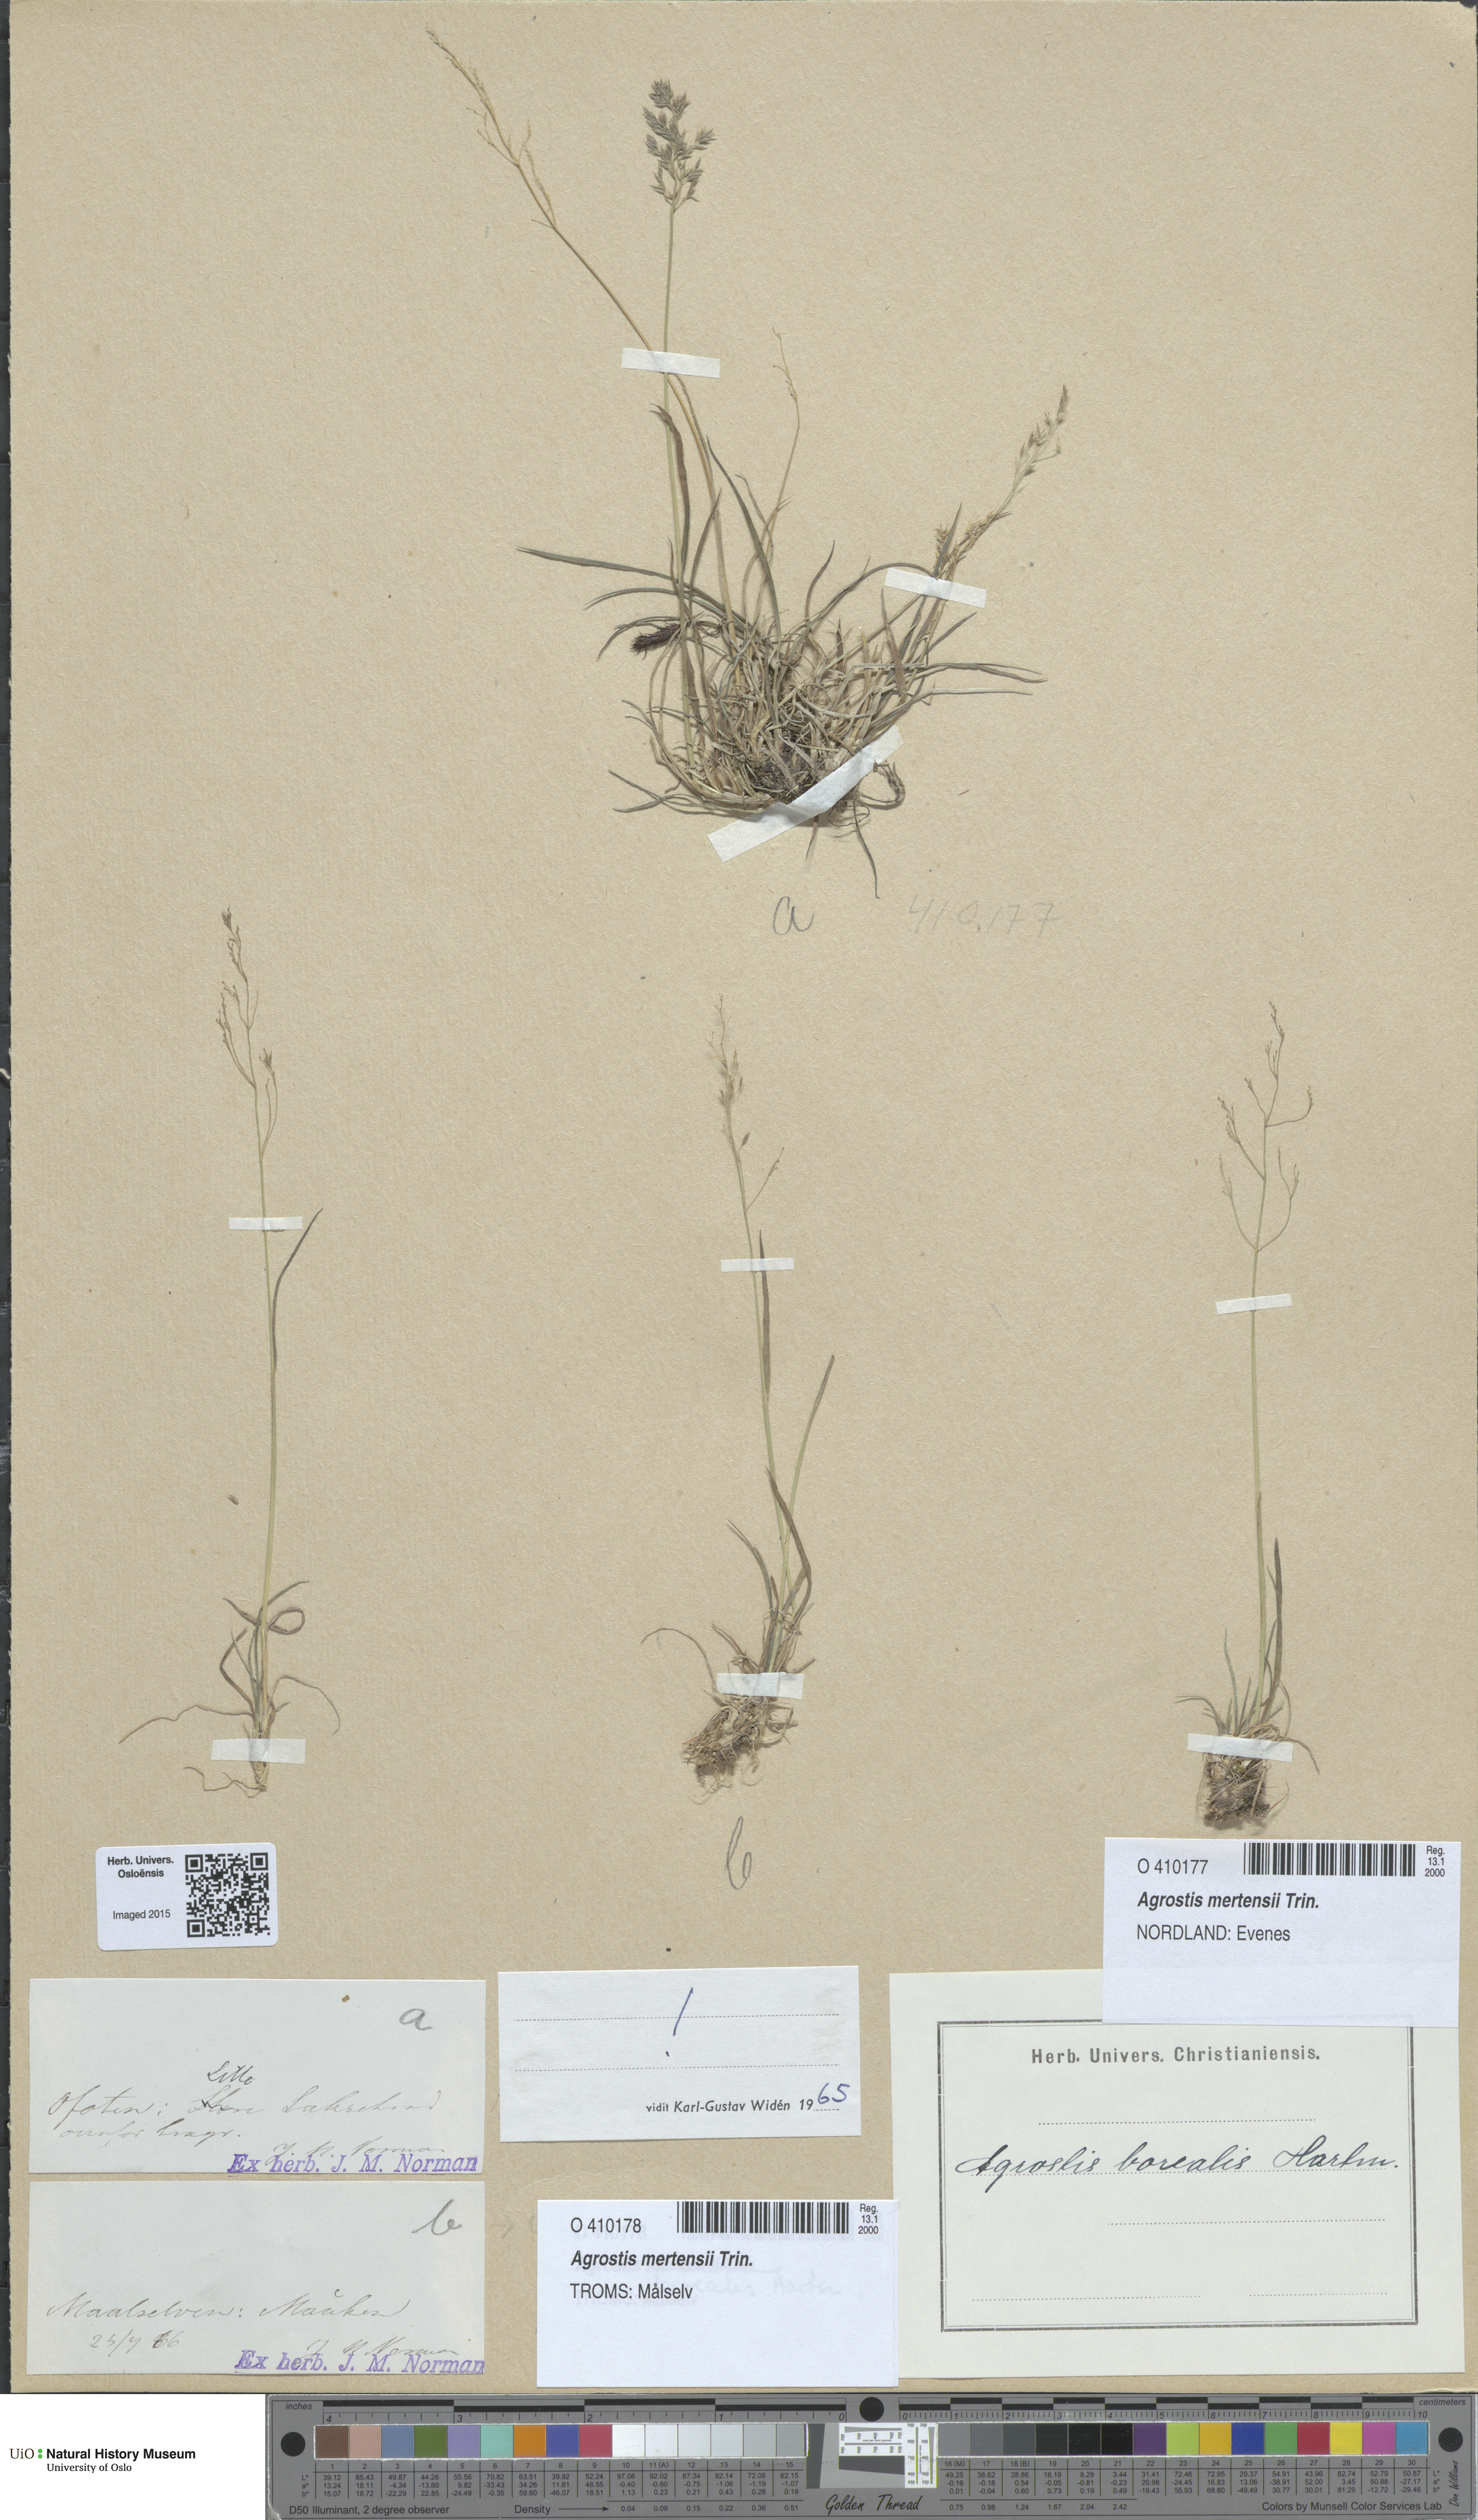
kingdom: Plantae
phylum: Tracheophyta
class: Liliopsida
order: Poales
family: Poaceae
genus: Agrostis
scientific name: Agrostis mertensii
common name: Northern bent
